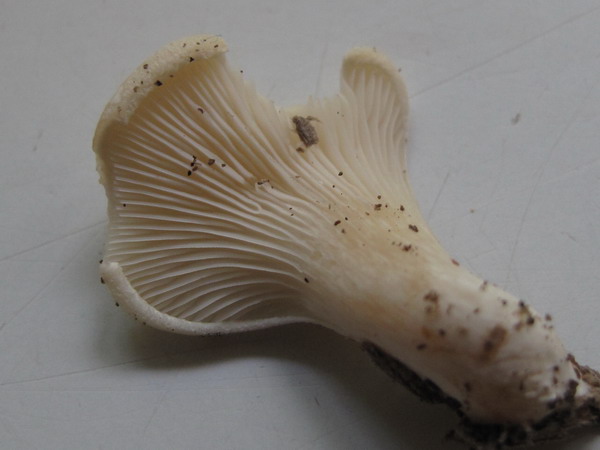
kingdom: Fungi
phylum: Basidiomycota
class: Agaricomycetes
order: Agaricales
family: Pleurotaceae
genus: Hohenbuehelia
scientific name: Hohenbuehelia auriscalpium
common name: spatel-filthat
